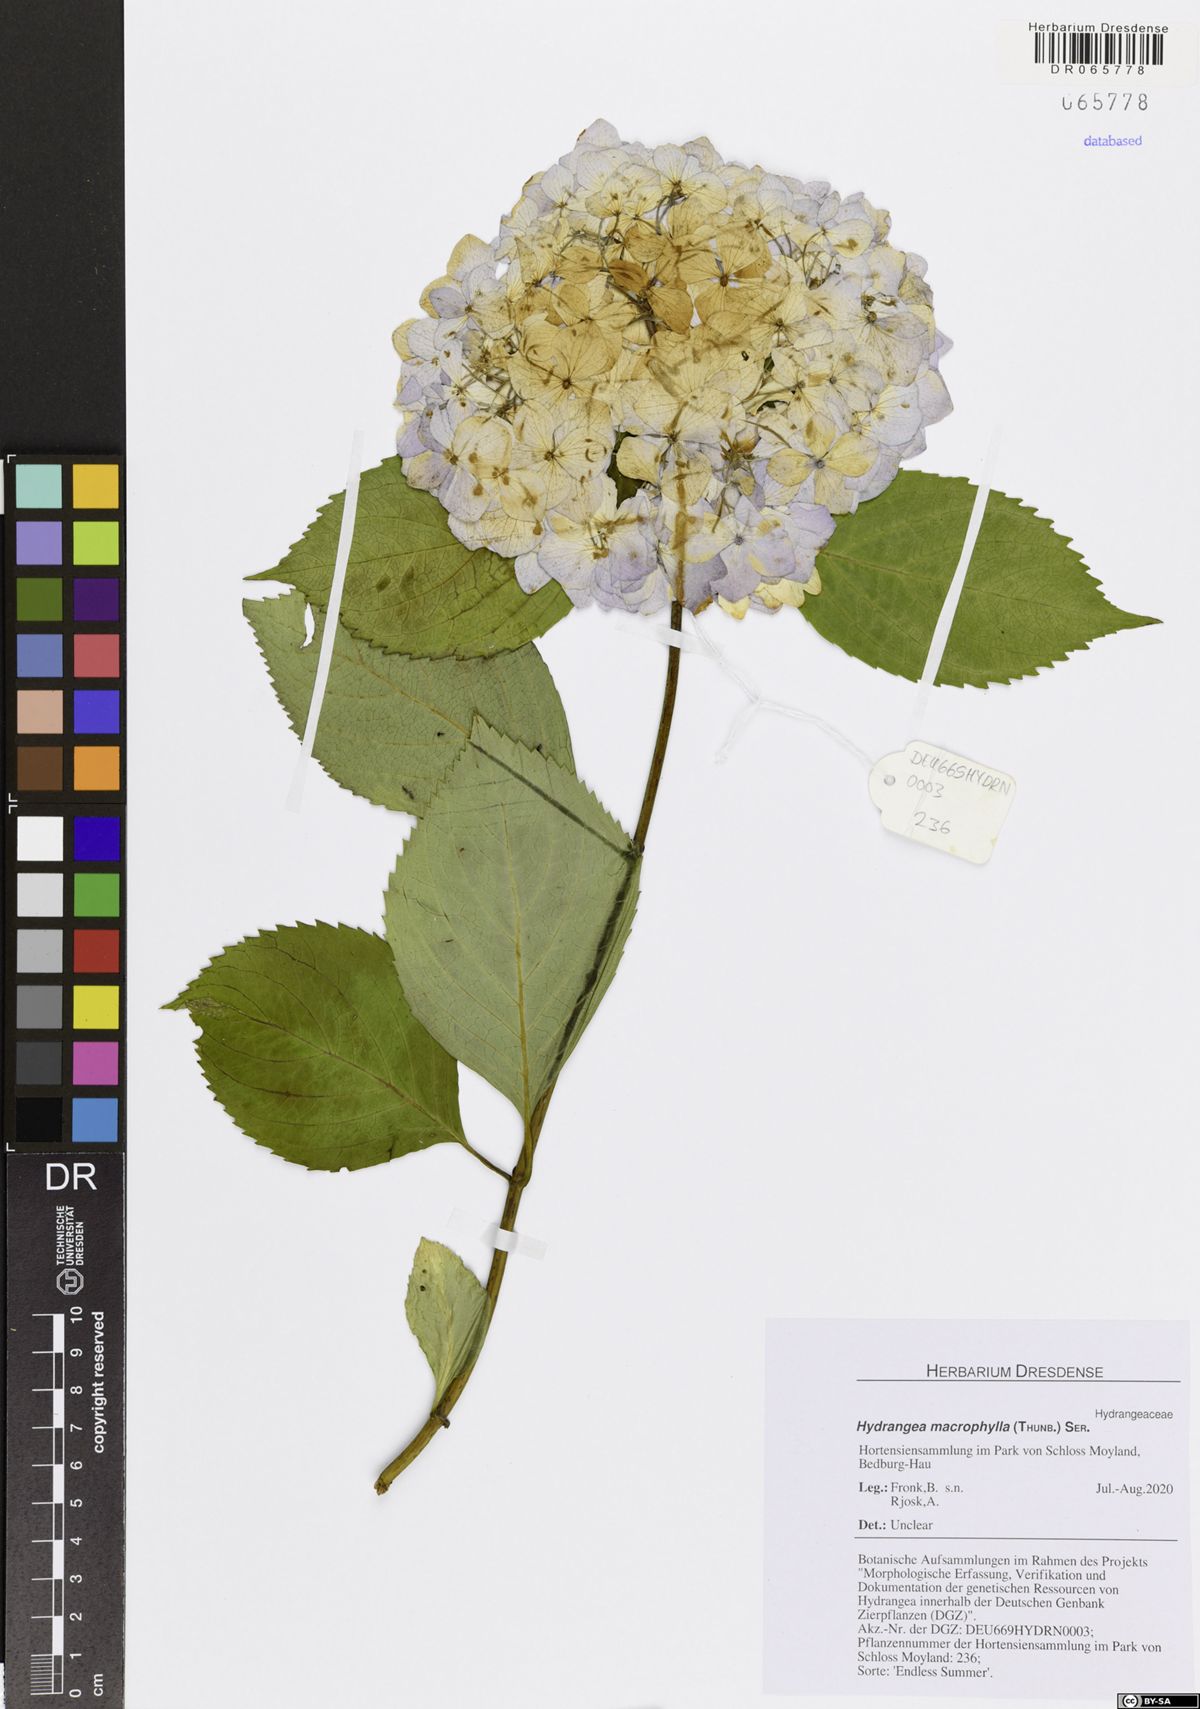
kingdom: Plantae
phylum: Tracheophyta
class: Magnoliopsida
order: Cornales
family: Hydrangeaceae
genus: Hydrangea
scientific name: Hydrangea macrophylla
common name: Hydrangea
